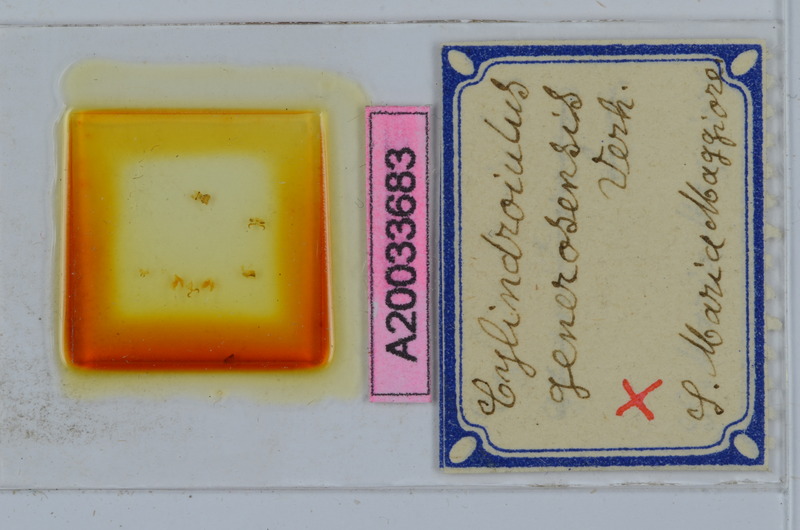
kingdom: Animalia
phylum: Arthropoda
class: Diplopoda
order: Julida
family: Julidae
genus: Cylindroiulus
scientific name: Cylindroiulus generosensis
